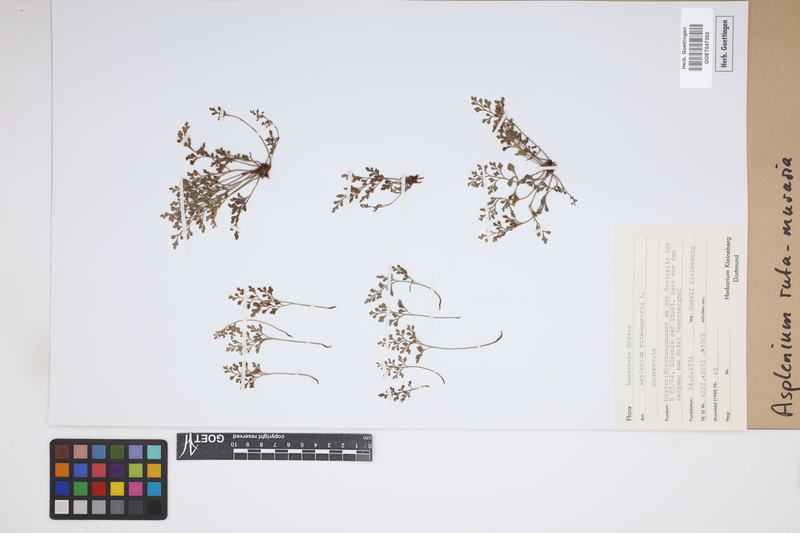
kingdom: Plantae
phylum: Tracheophyta
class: Polypodiopsida
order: Polypodiales
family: Aspleniaceae
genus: Asplenium
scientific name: Asplenium ruta-muraria
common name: Wall-rue
